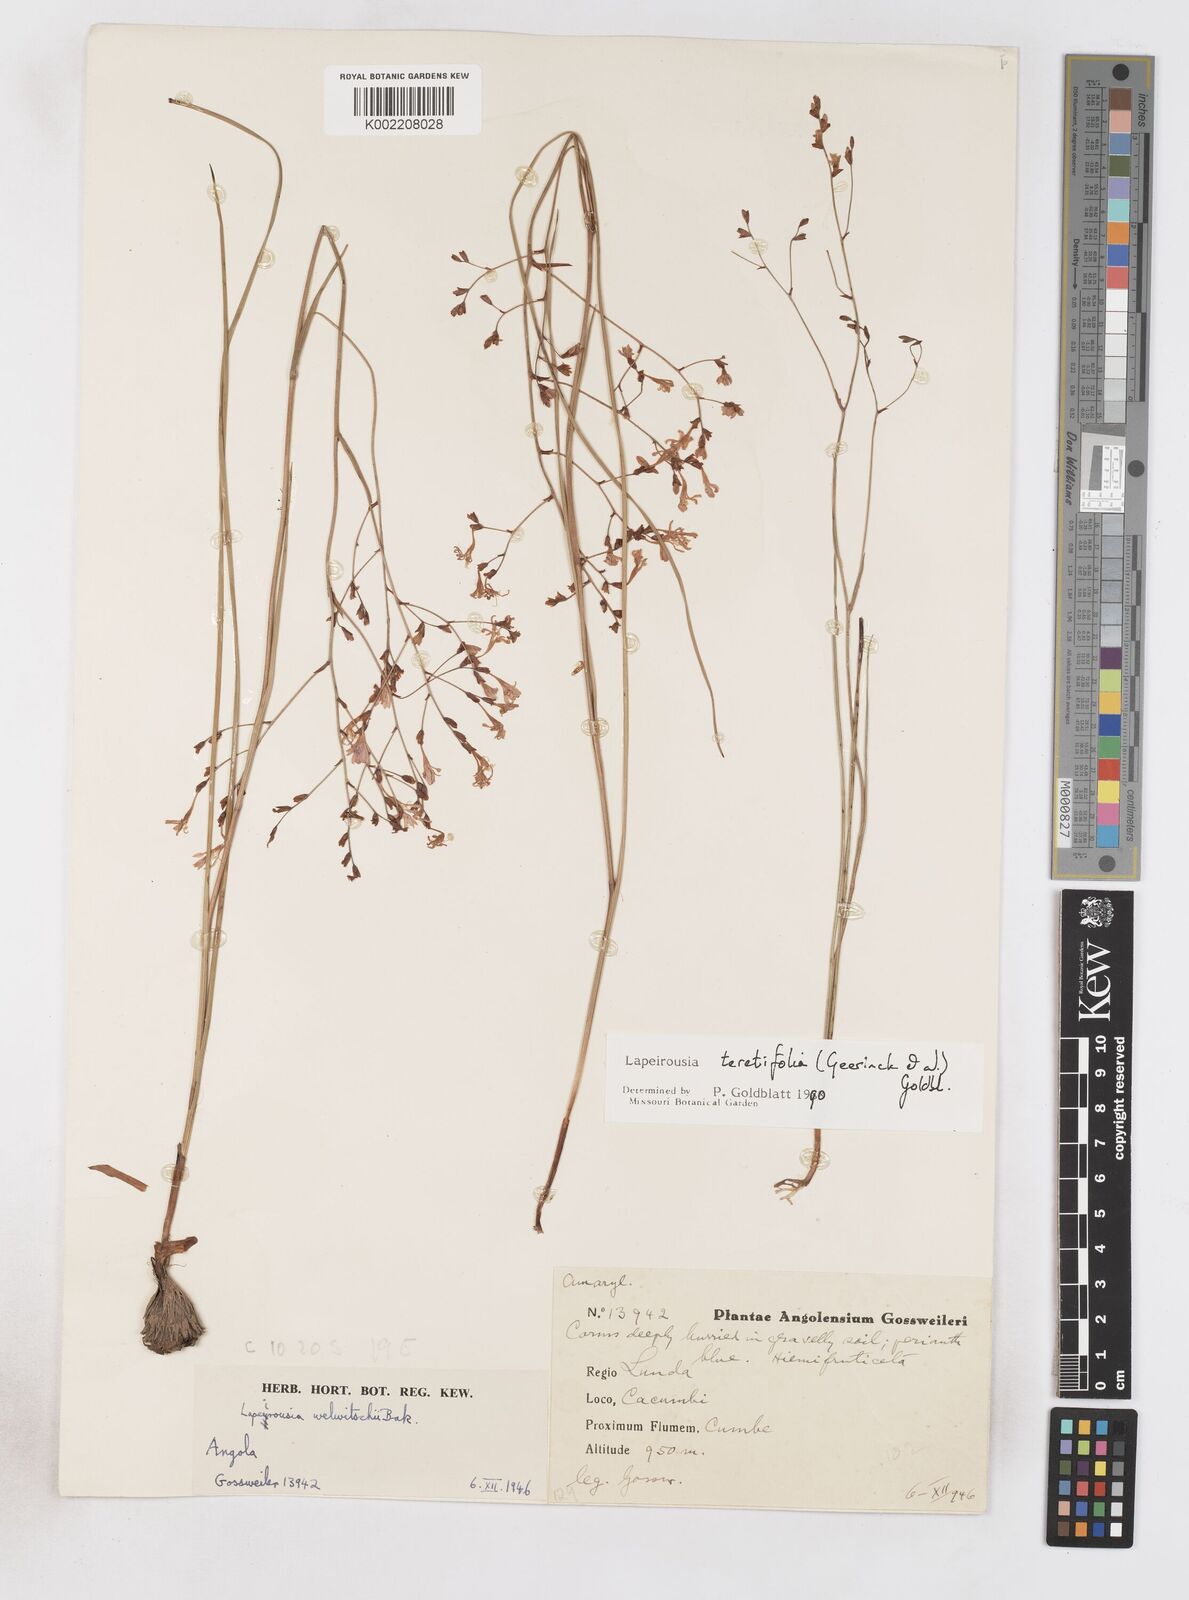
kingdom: Plantae
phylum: Tracheophyta
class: Liliopsida
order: Asparagales
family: Iridaceae
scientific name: Iridaceae
